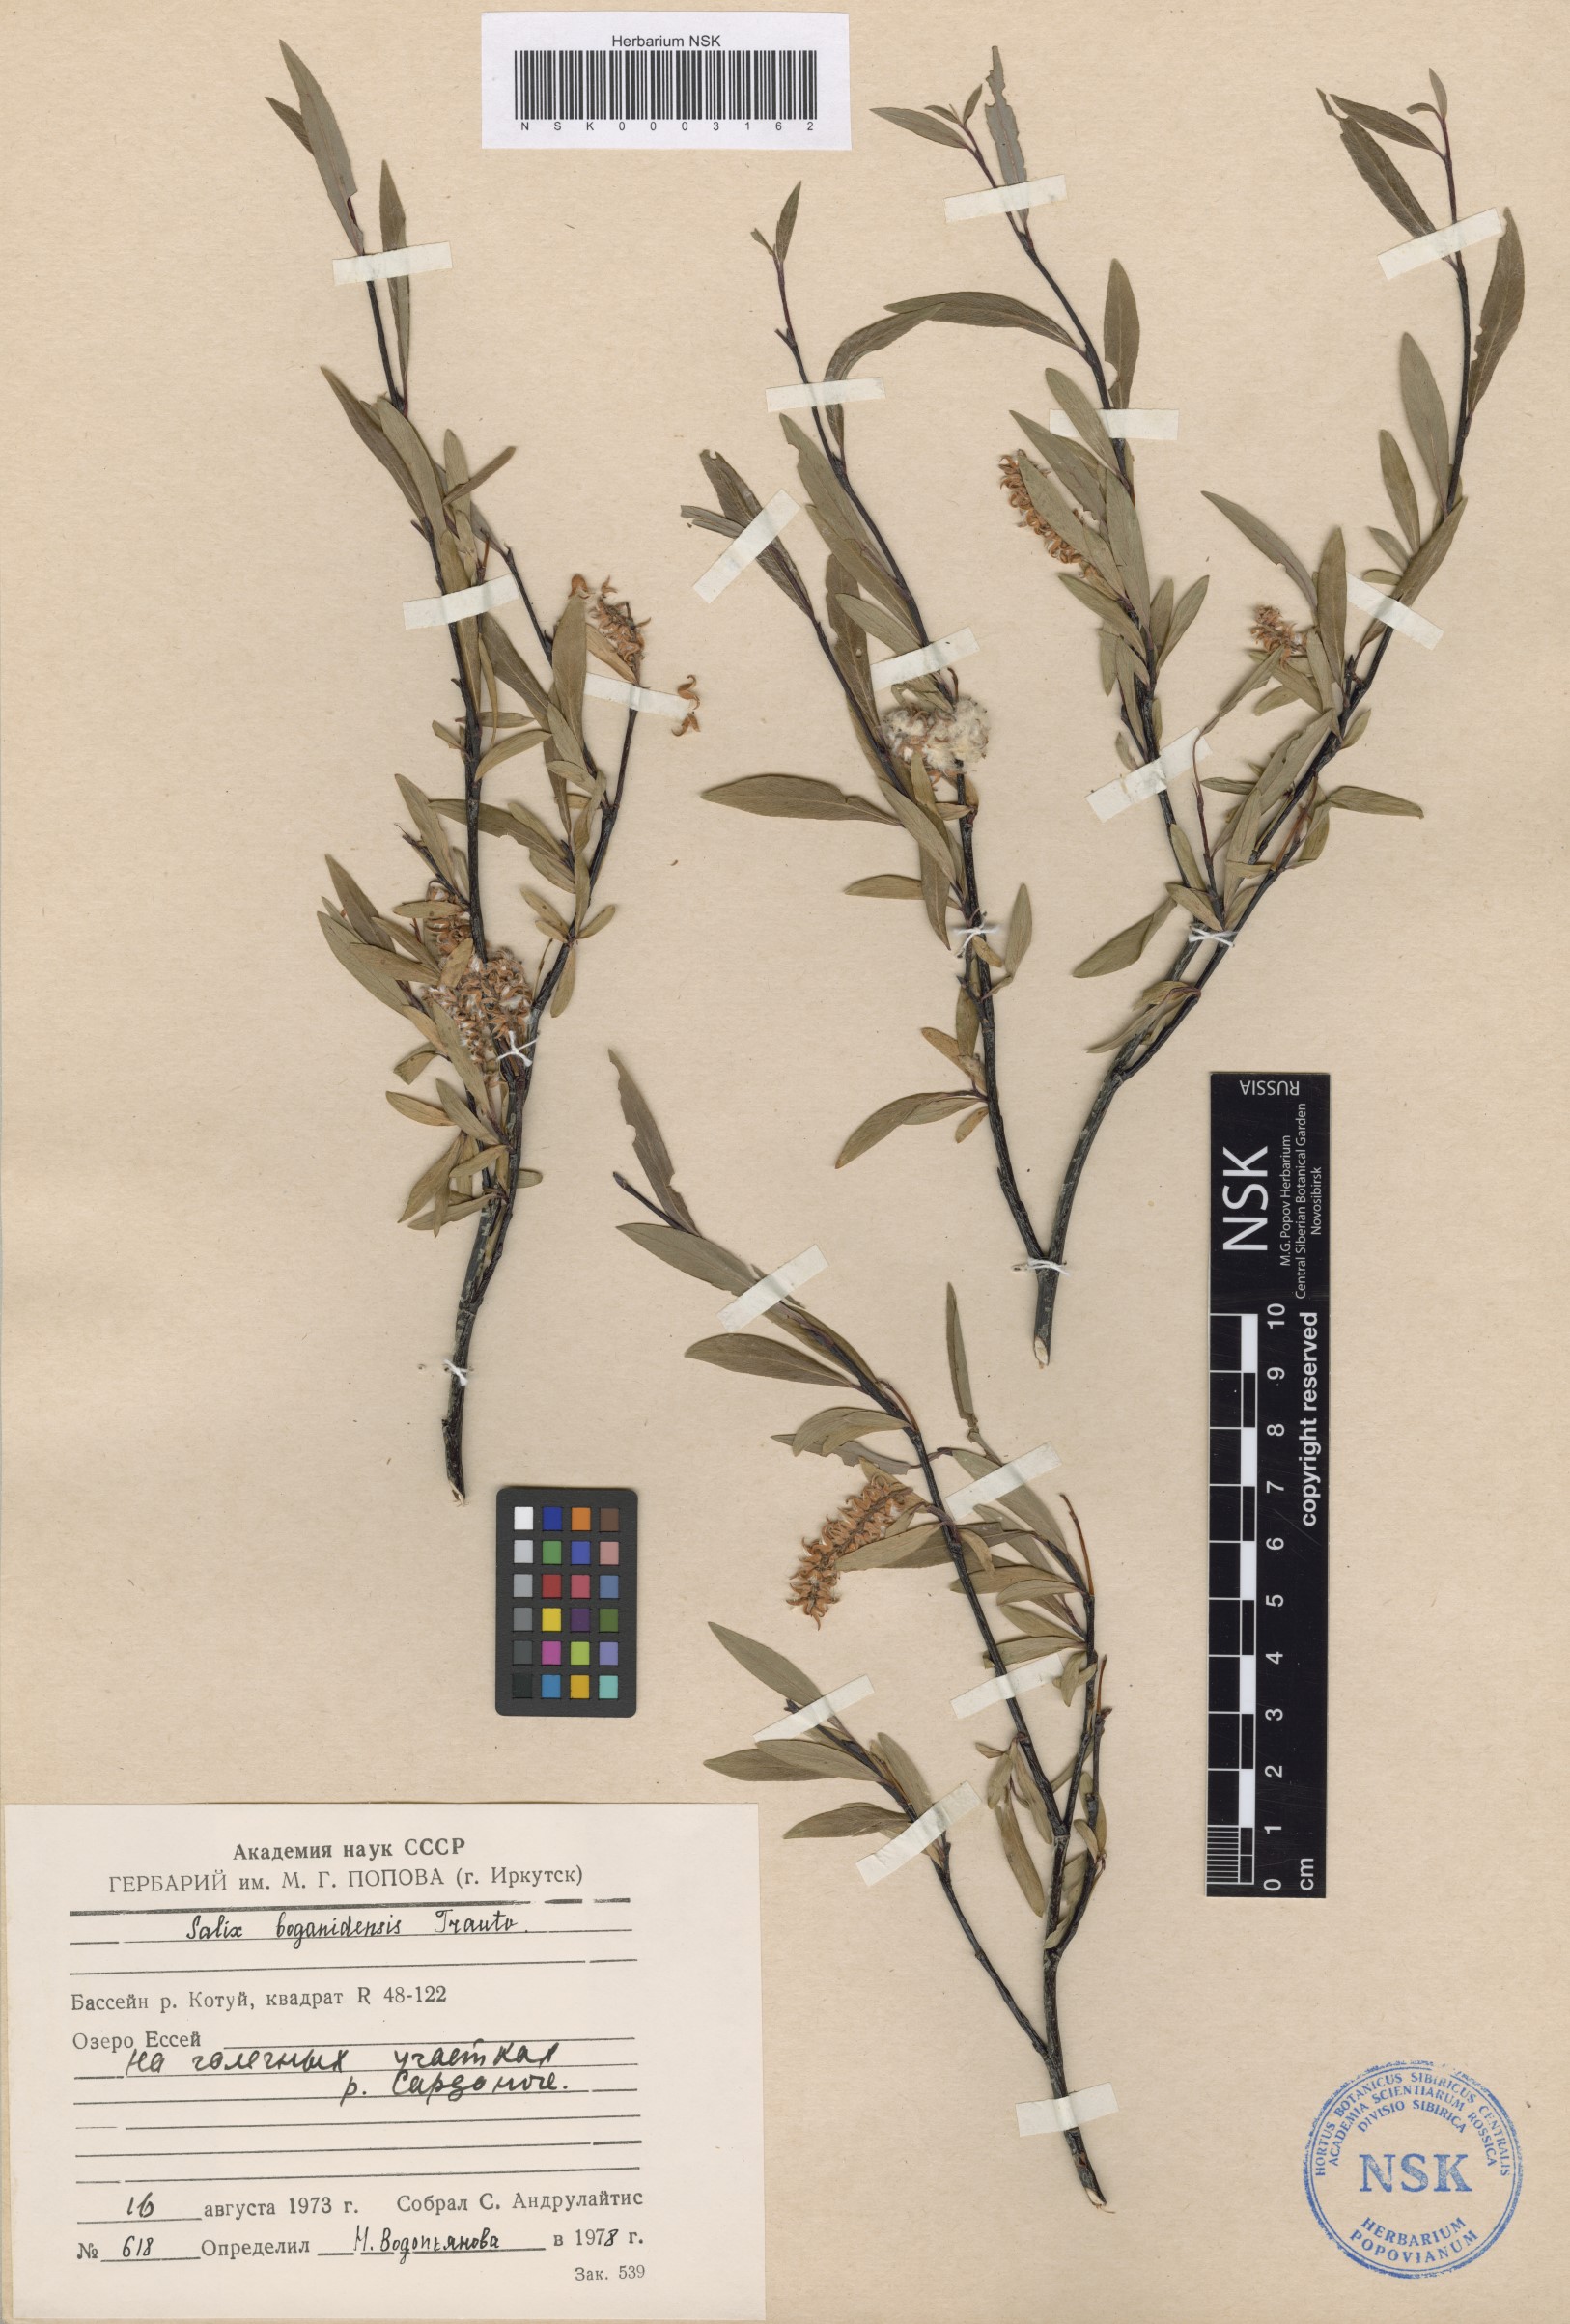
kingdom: Plantae
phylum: Tracheophyta
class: Magnoliopsida
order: Malpighiales
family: Salicaceae
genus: Salix
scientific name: Salix boganidensis
